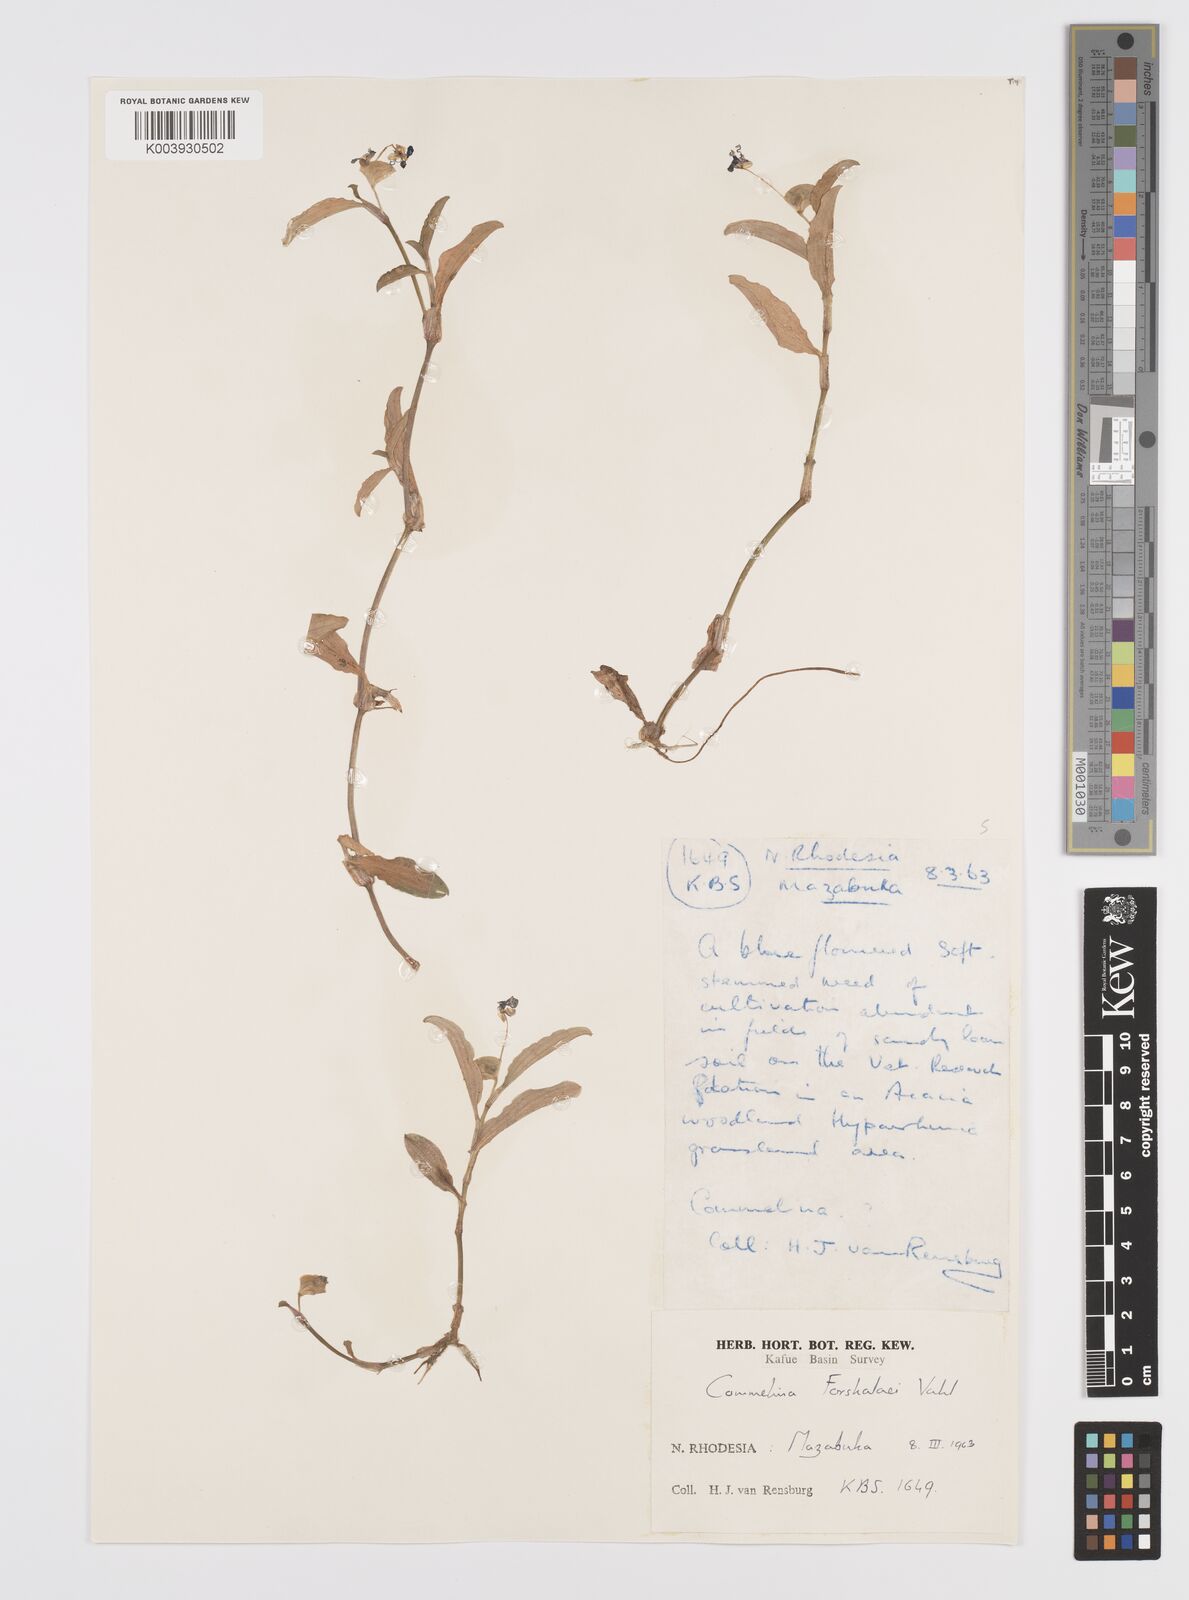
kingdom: Plantae
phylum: Tracheophyta
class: Liliopsida
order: Commelinales
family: Commelinaceae
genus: Commelina
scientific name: Commelina forskaolii
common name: Rat's ear
